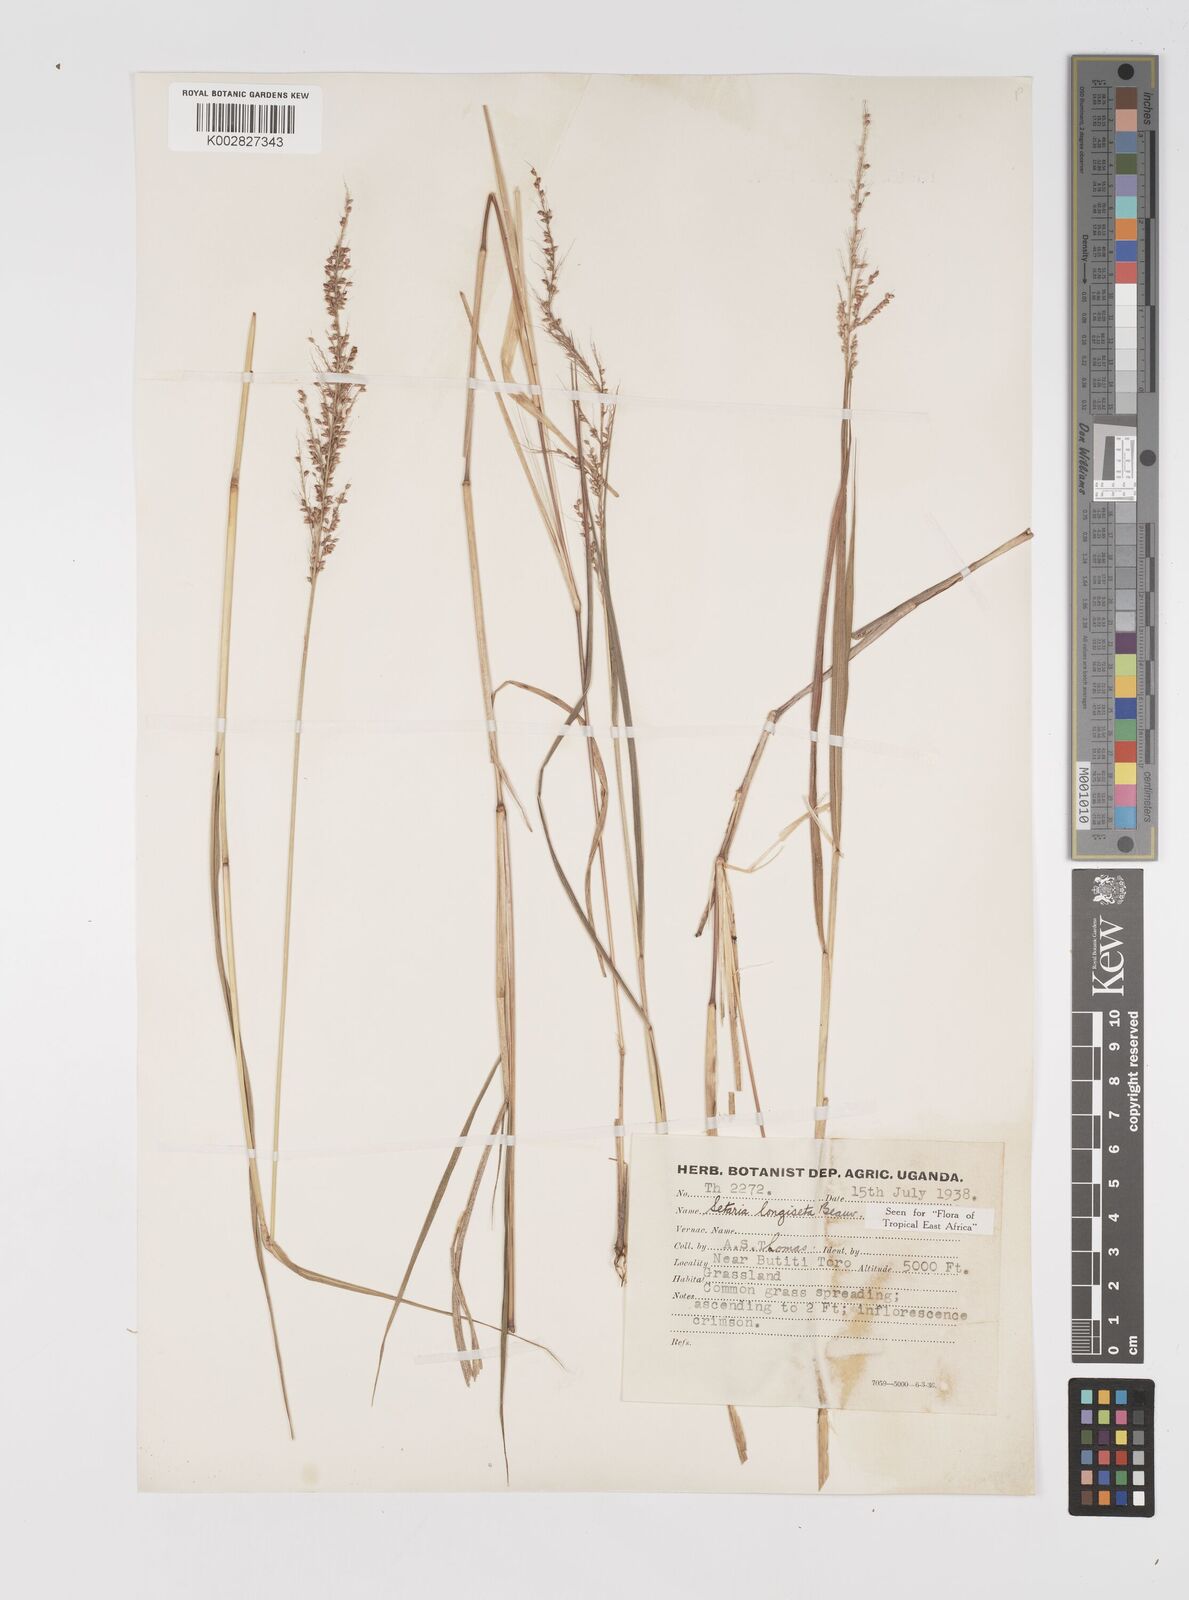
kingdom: Plantae
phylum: Tracheophyta
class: Liliopsida
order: Poales
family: Poaceae
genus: Setaria
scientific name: Setaria longiseta
